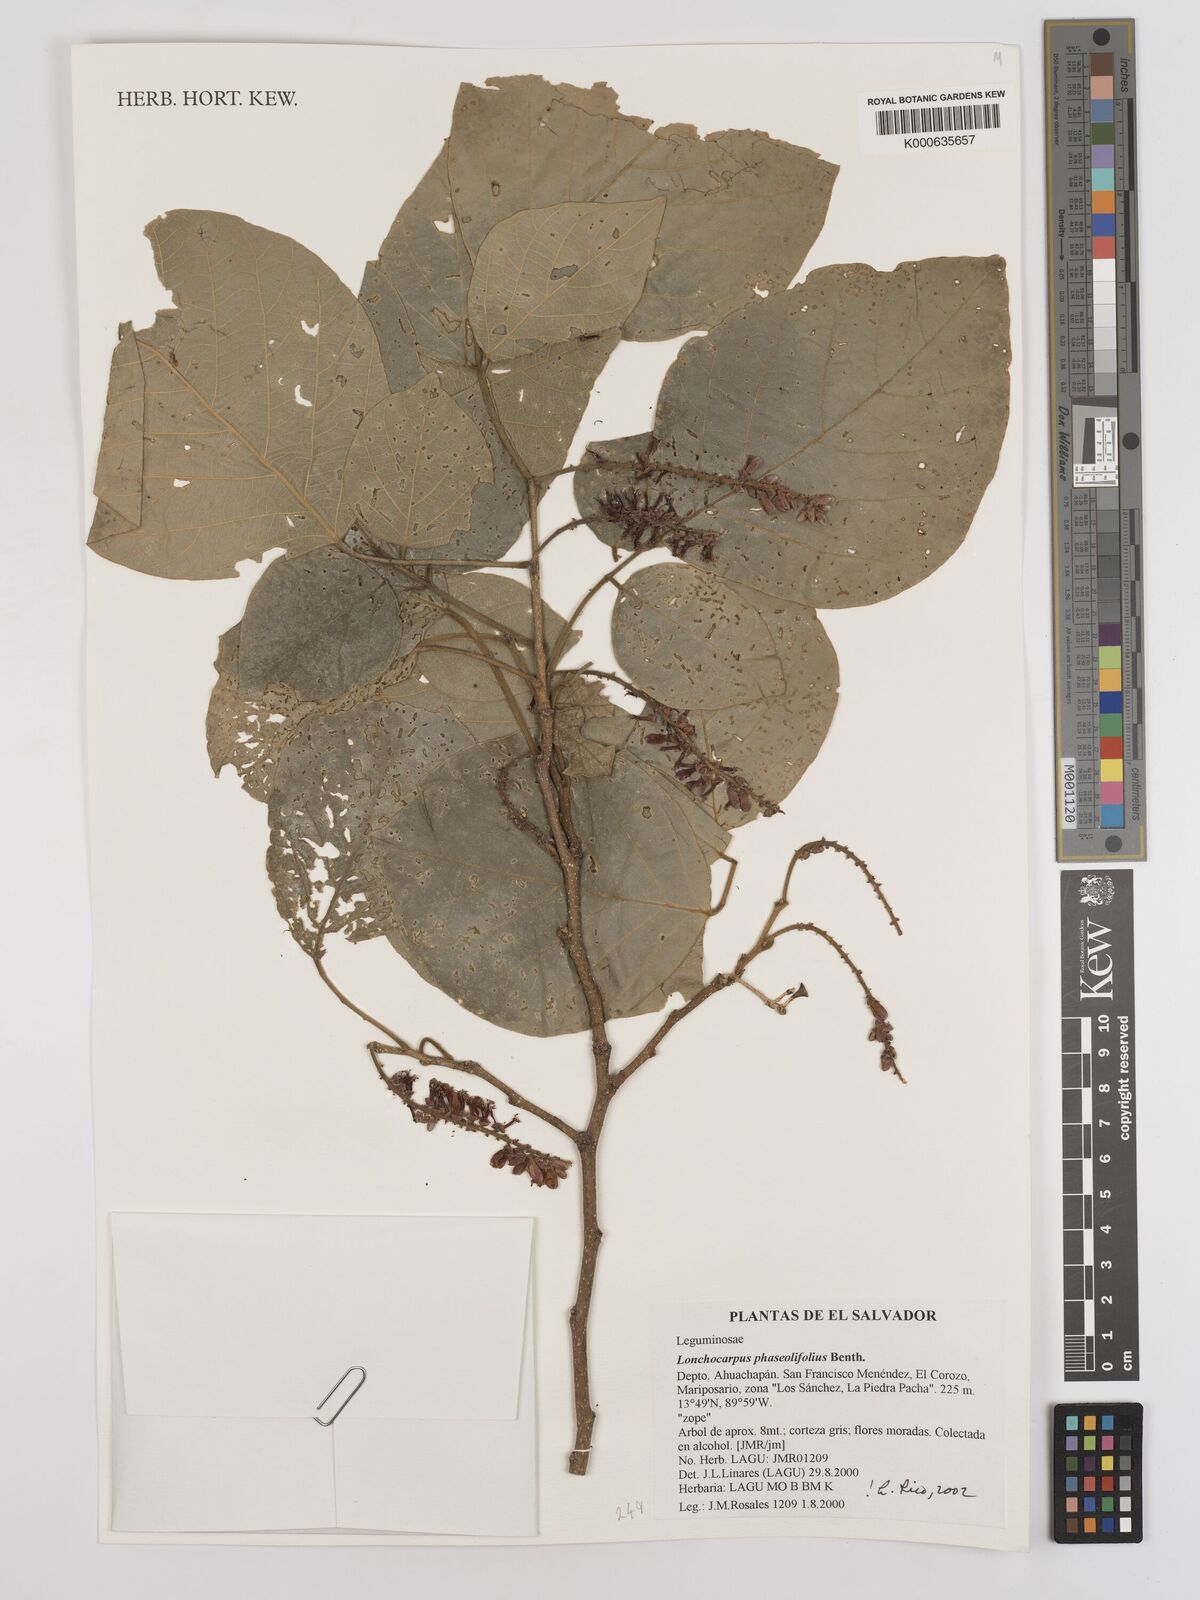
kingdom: Plantae
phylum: Tracheophyta
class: Magnoliopsida
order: Fabales
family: Fabaceae
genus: Lonchocarpus
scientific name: Lonchocarpus phaseolifolius
